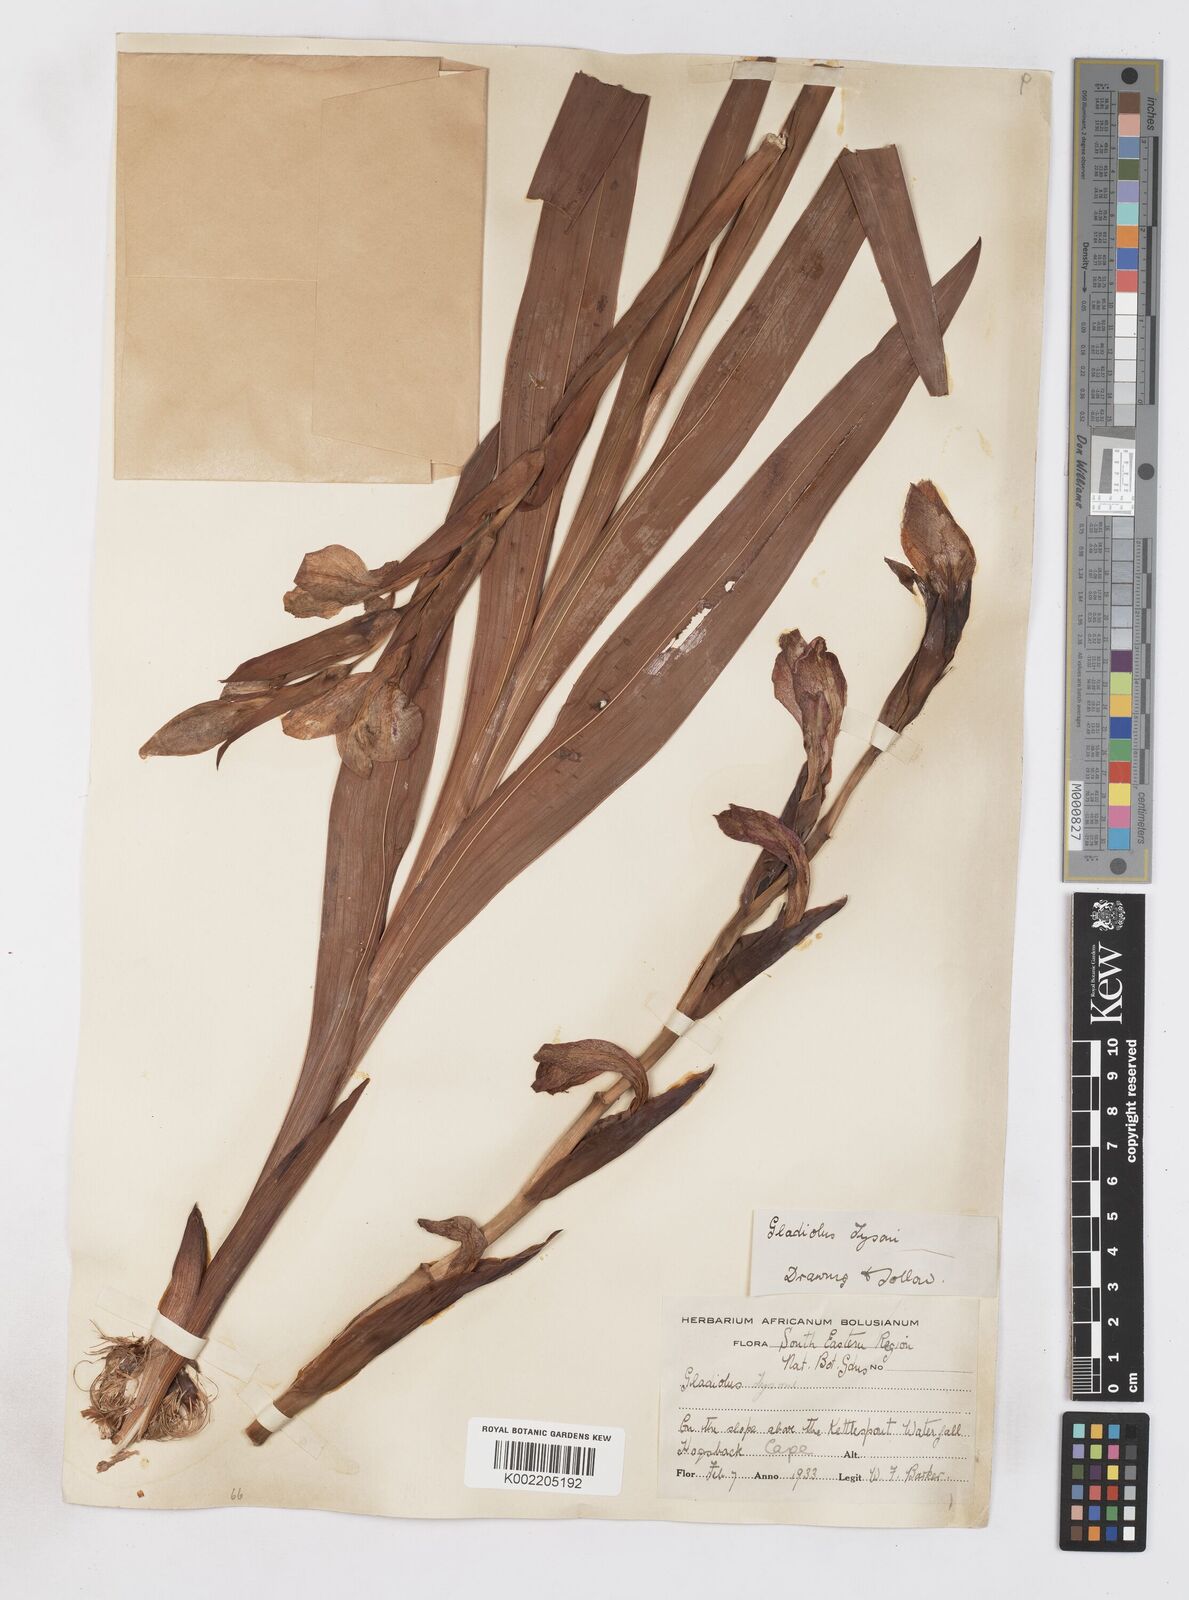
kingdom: Plantae
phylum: Tracheophyta
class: Liliopsida
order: Asparagales
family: Iridaceae
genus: Gladiolus
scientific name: Gladiolus dalenii
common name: Cornflag
